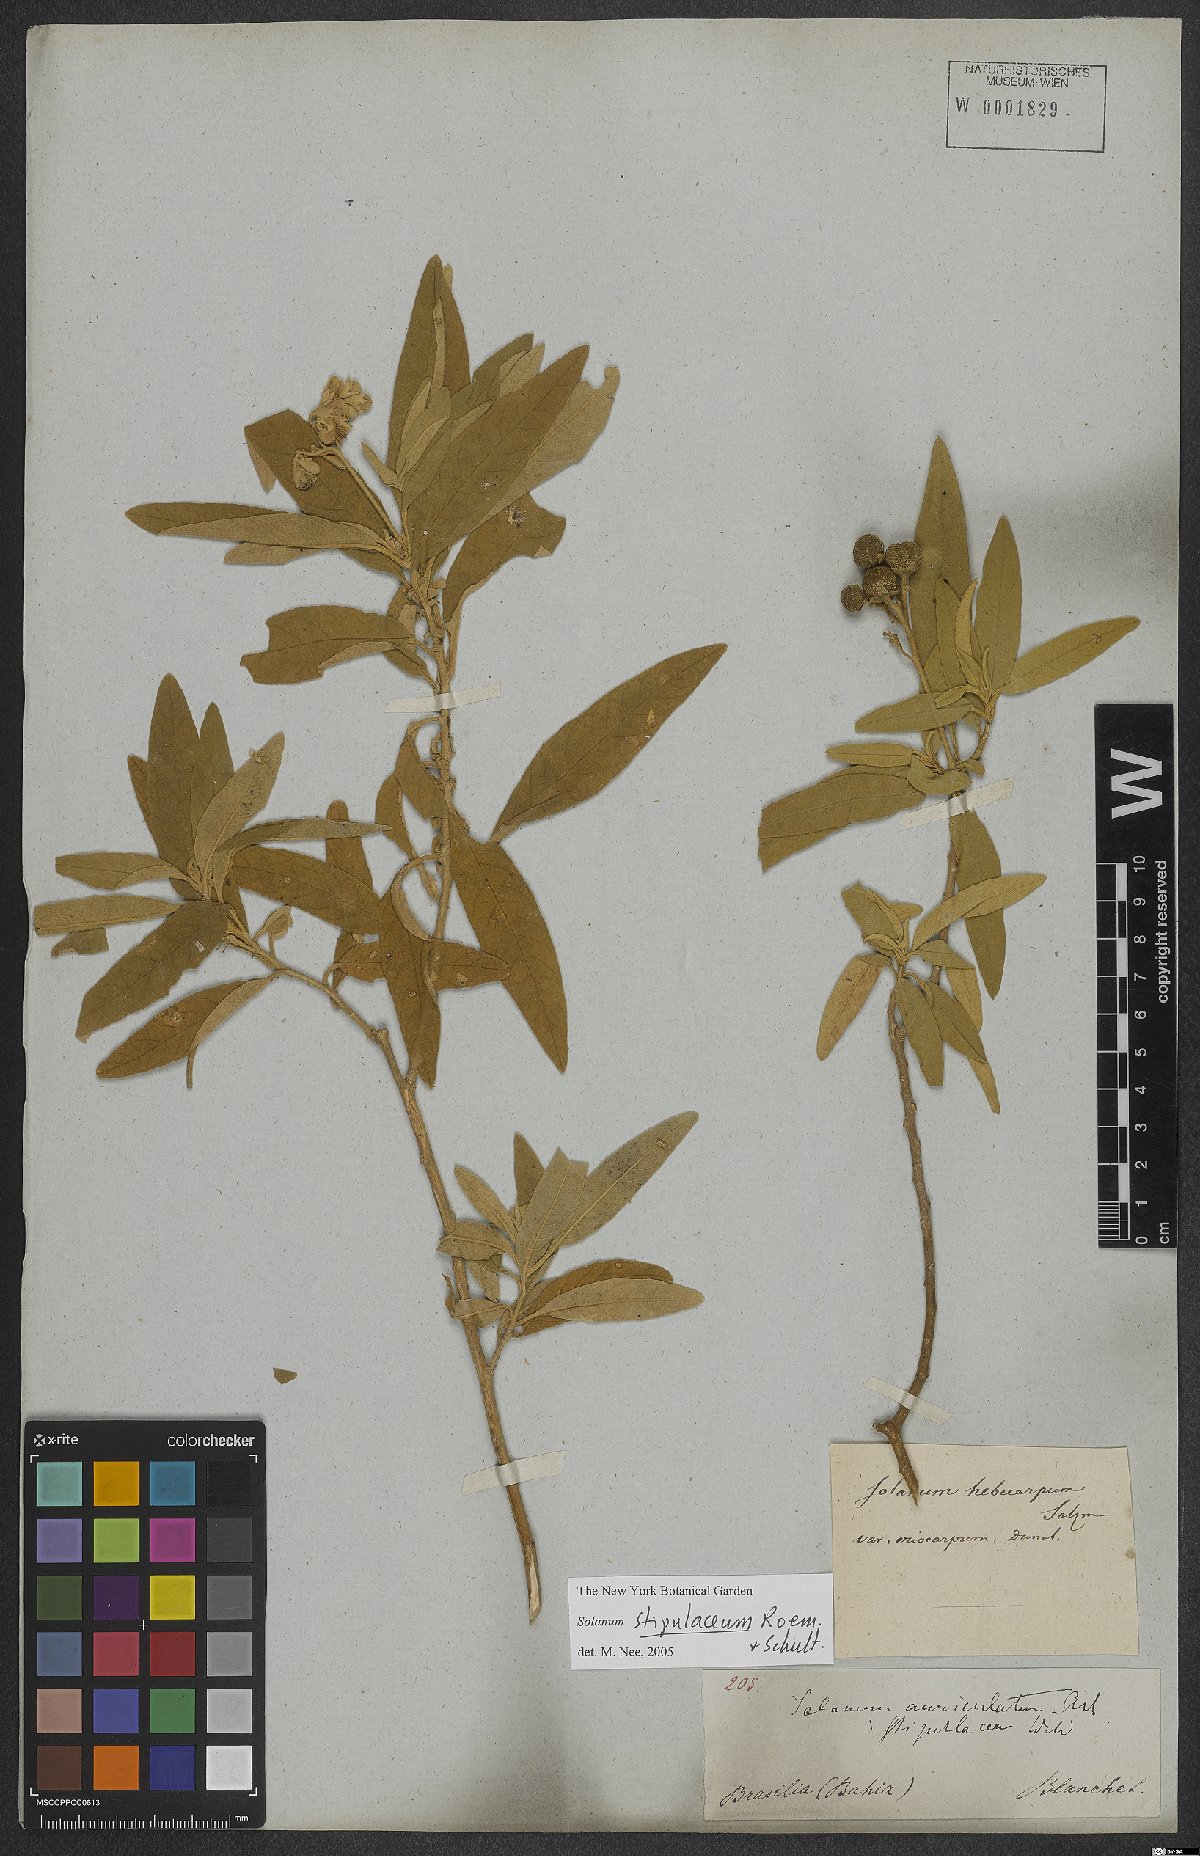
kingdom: Plantae
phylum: Tracheophyta
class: Magnoliopsida
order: Solanales
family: Solanaceae
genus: Solanum
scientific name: Solanum stipulaceum
